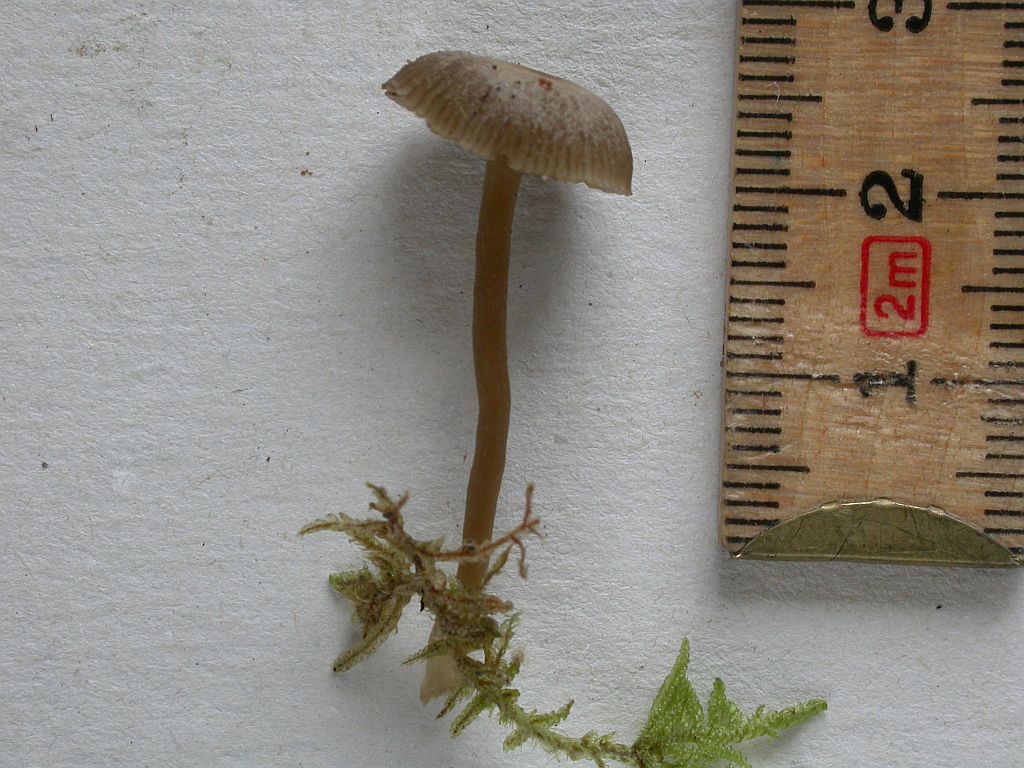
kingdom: Fungi
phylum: Basidiomycota
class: Agaricomycetes
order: Agaricales
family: Tricholomataceae
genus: Omphaliaster
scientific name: Omphaliaster asterosporus
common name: narrehat
